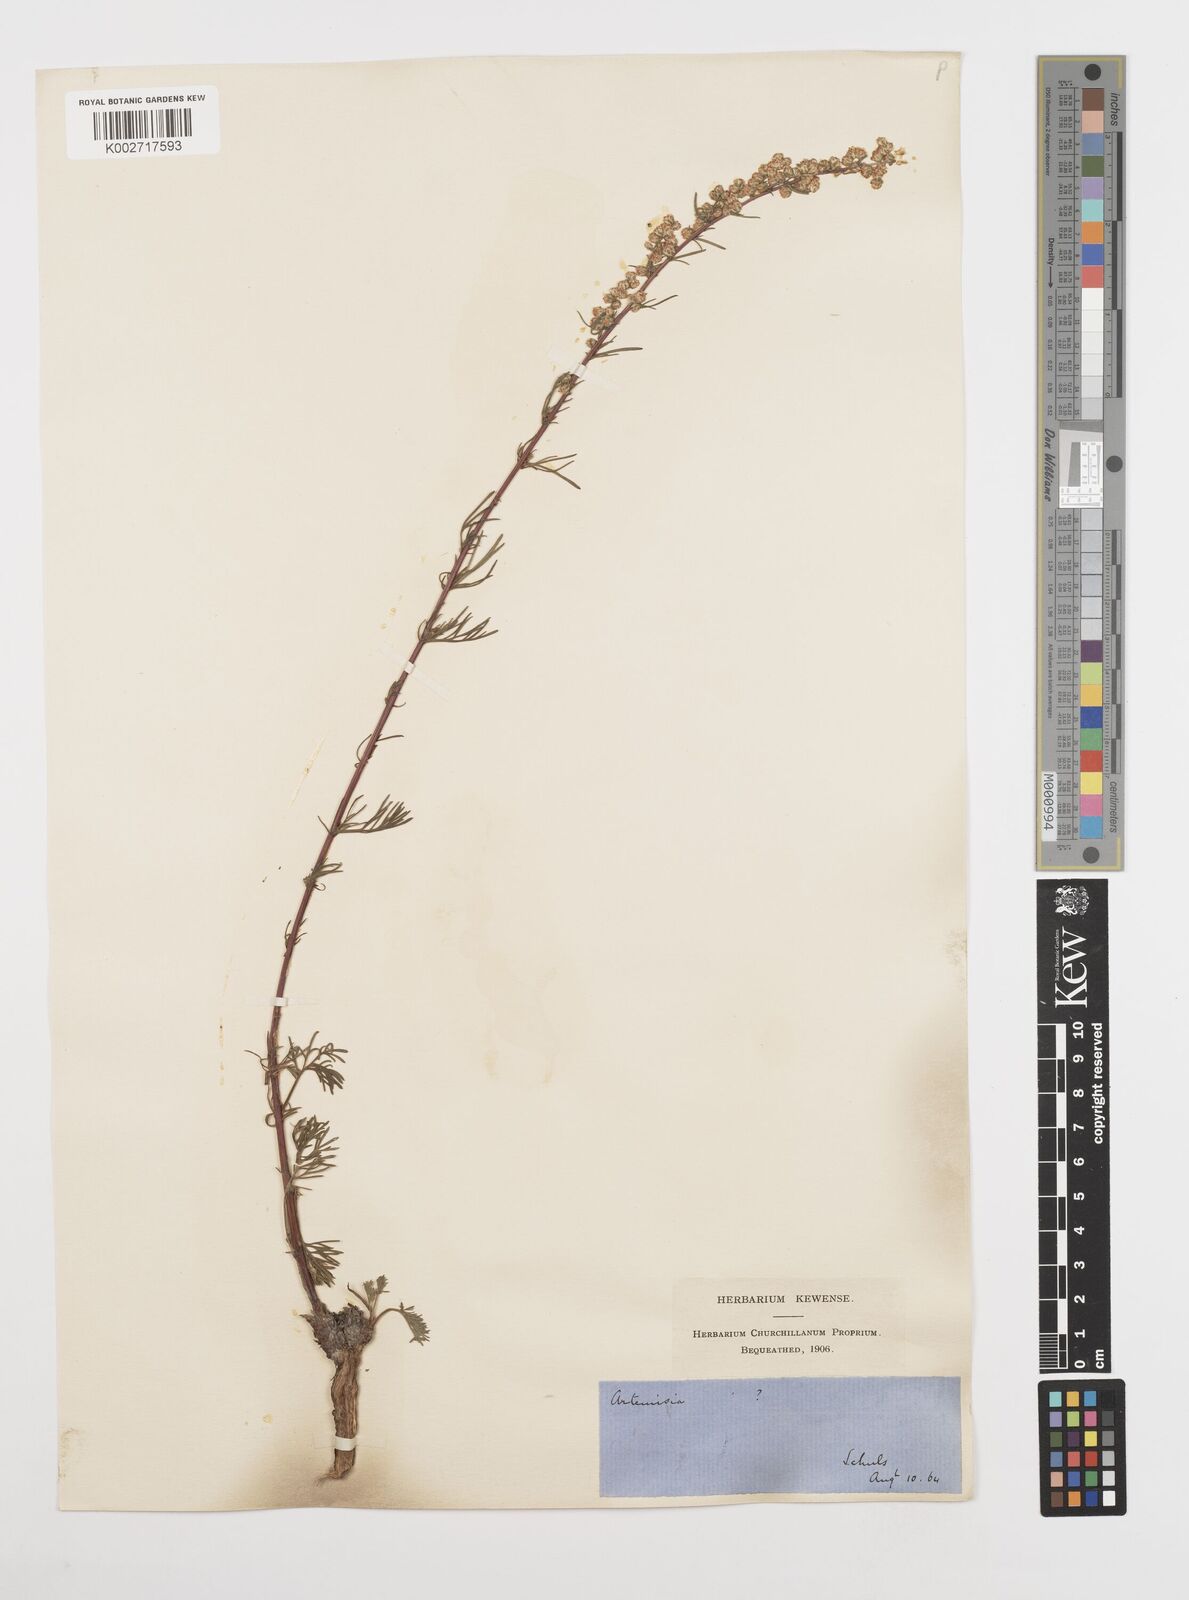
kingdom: Plantae
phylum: Tracheophyta
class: Magnoliopsida
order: Asterales
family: Asteraceae
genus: Artemisia
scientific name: Artemisia campestris
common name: Field wormwood
